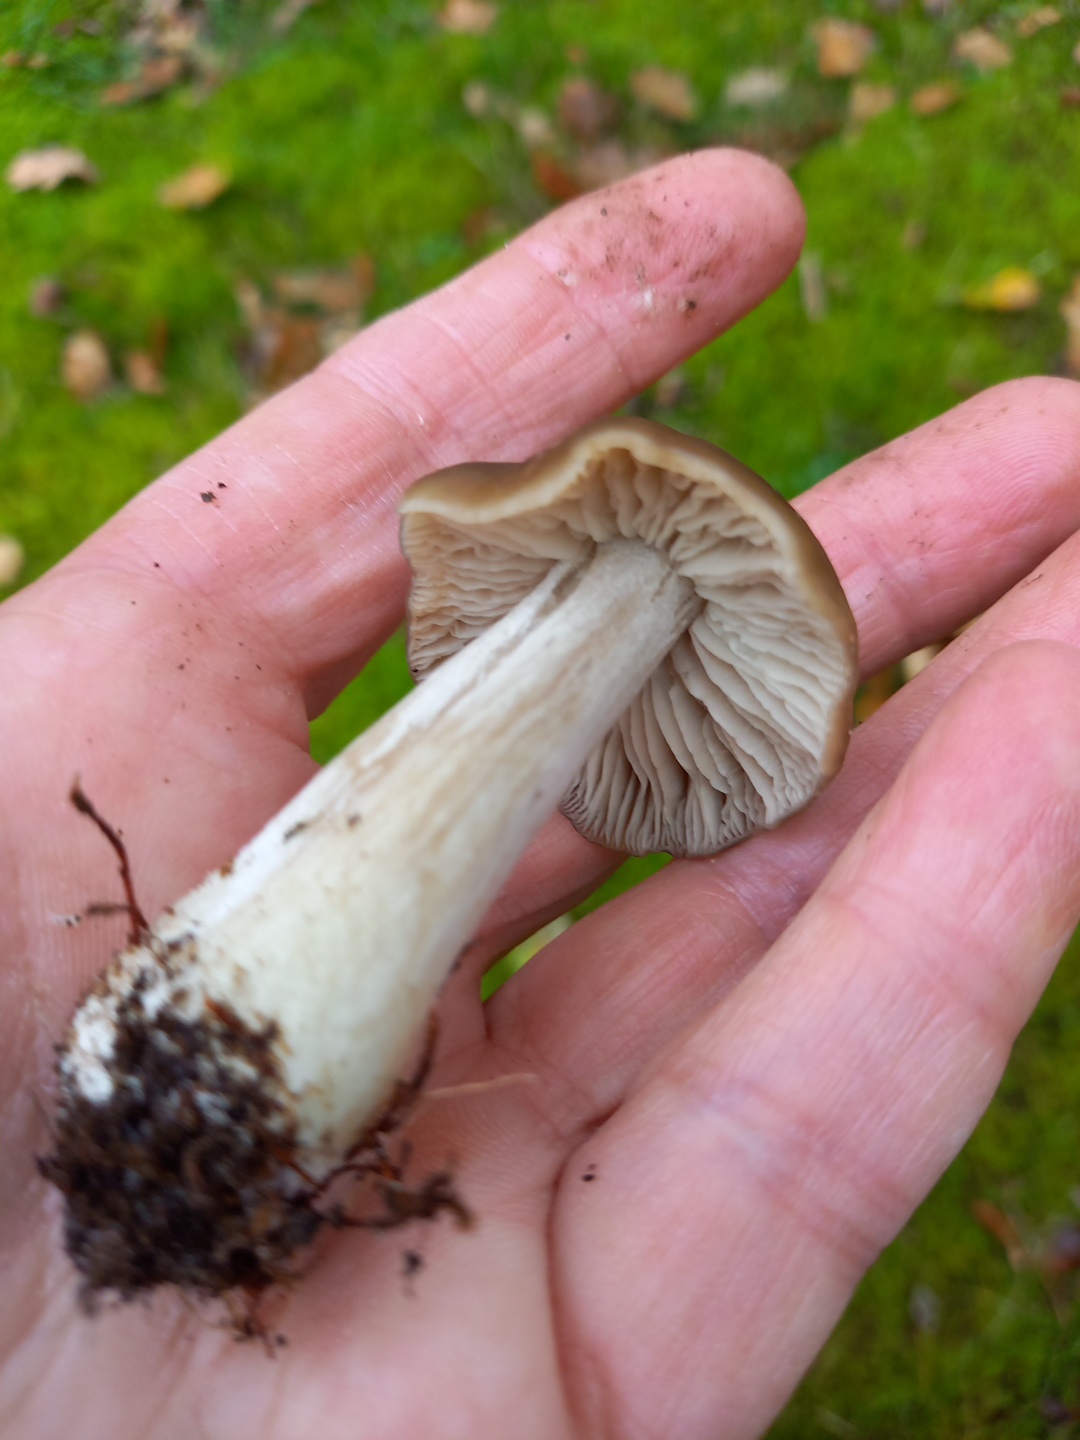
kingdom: Fungi
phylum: Basidiomycota
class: Agaricomycetes
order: Agaricales
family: Entolomataceae
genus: Entoloma
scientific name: Entoloma
